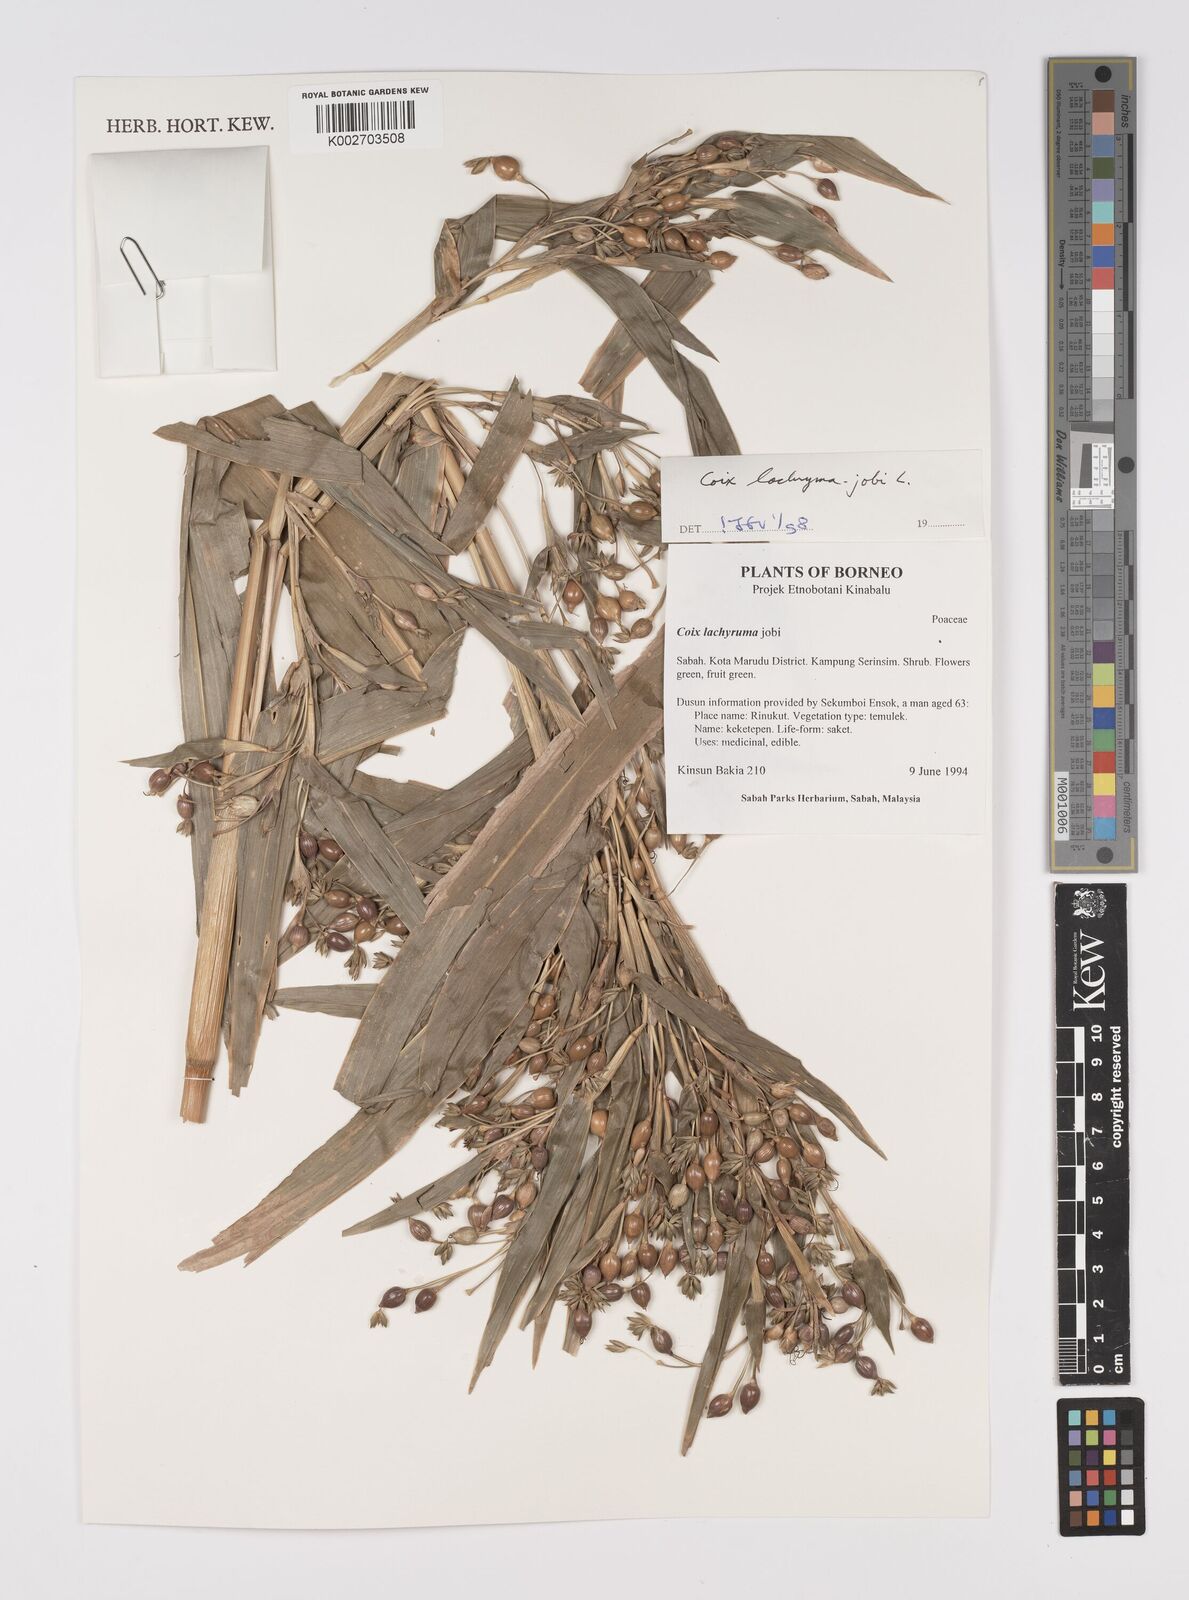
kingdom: Plantae
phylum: Tracheophyta
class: Liliopsida
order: Poales
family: Poaceae
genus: Coix
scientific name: Coix lacryma-jobi
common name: Job's tears
